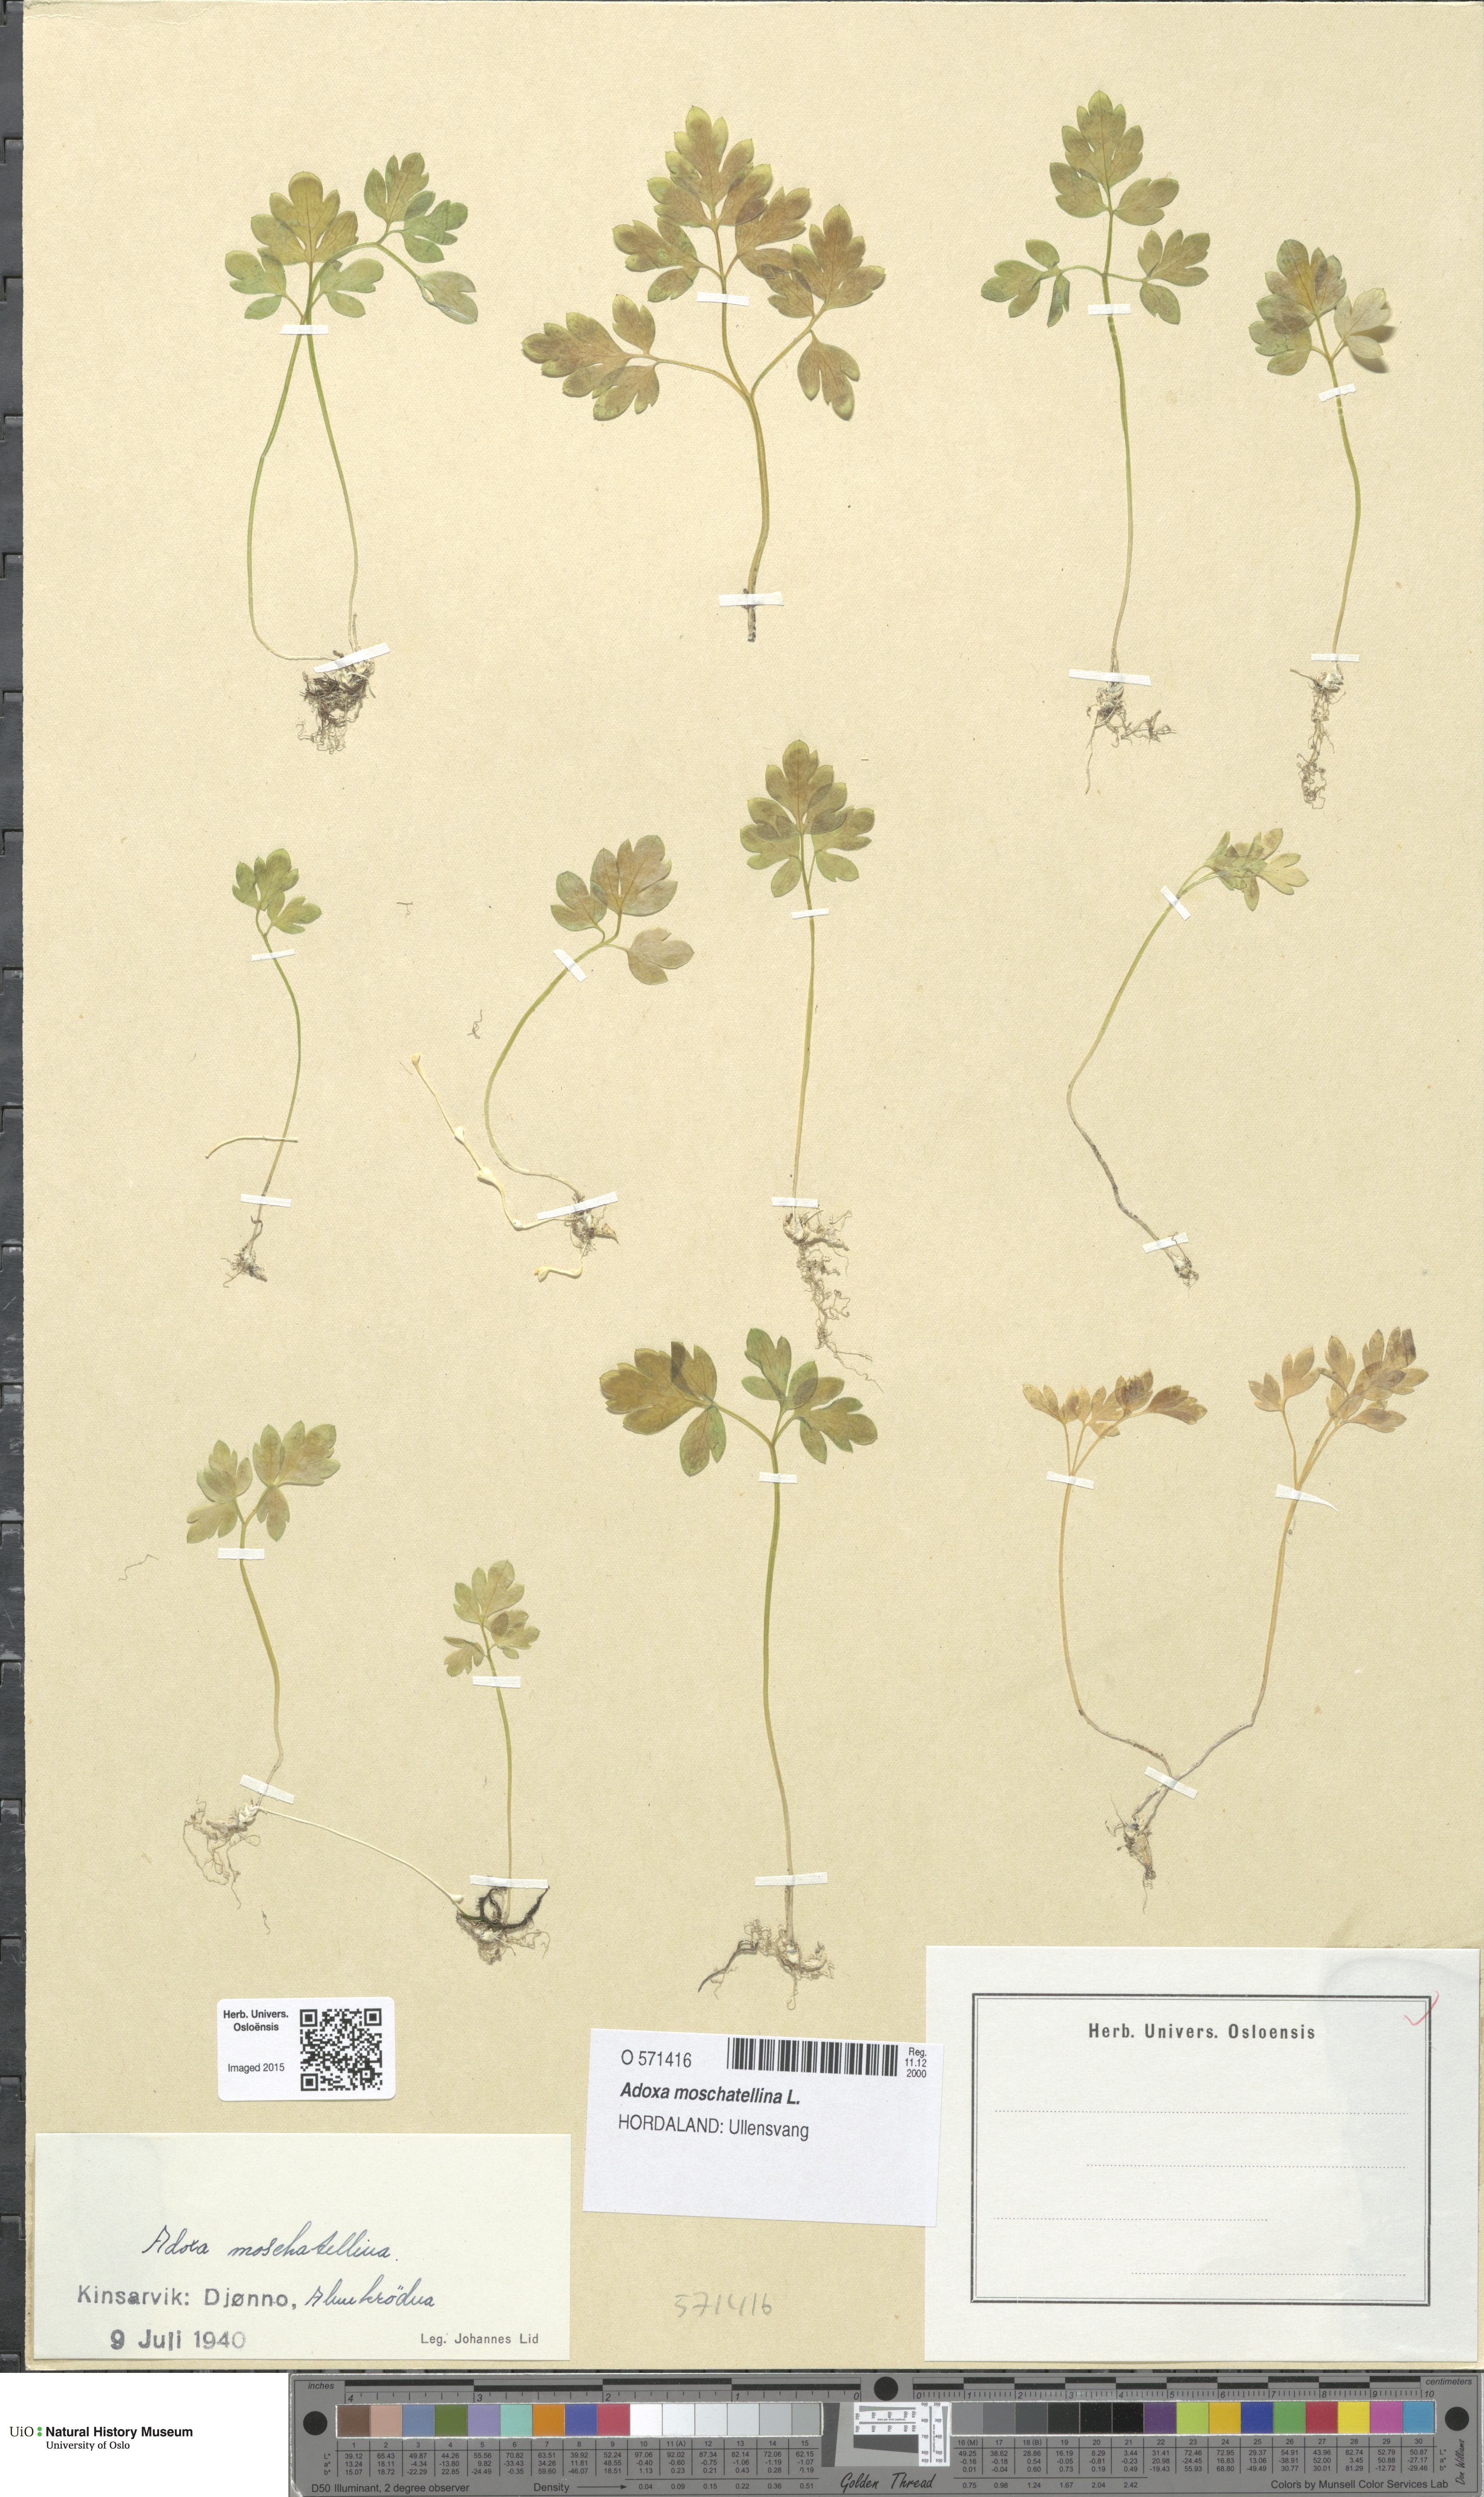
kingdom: Plantae
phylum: Tracheophyta
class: Magnoliopsida
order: Dipsacales
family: Viburnaceae
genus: Adoxa
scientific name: Adoxa moschatellina
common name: Moschatel
